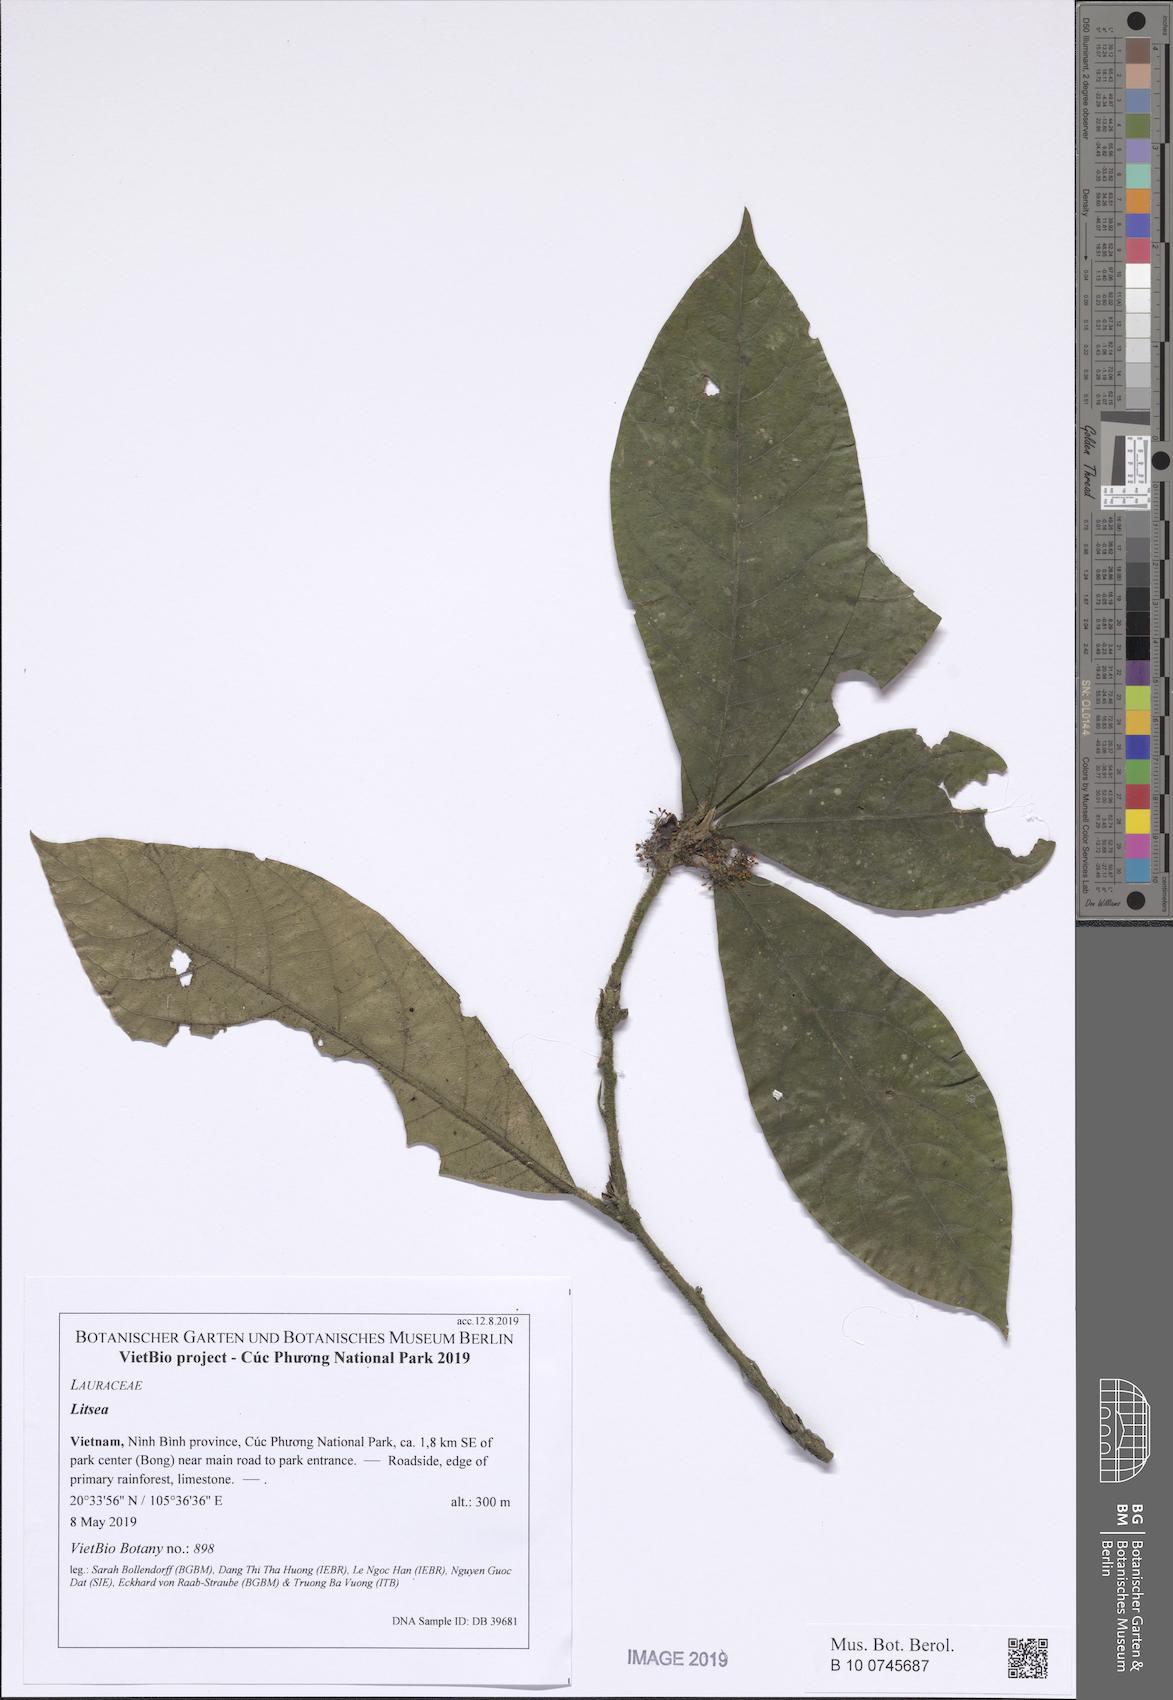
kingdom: Plantae
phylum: Tracheophyta
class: Magnoliopsida
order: Laurales
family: Lauraceae
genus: Litsea
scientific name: Litsea acutivena
